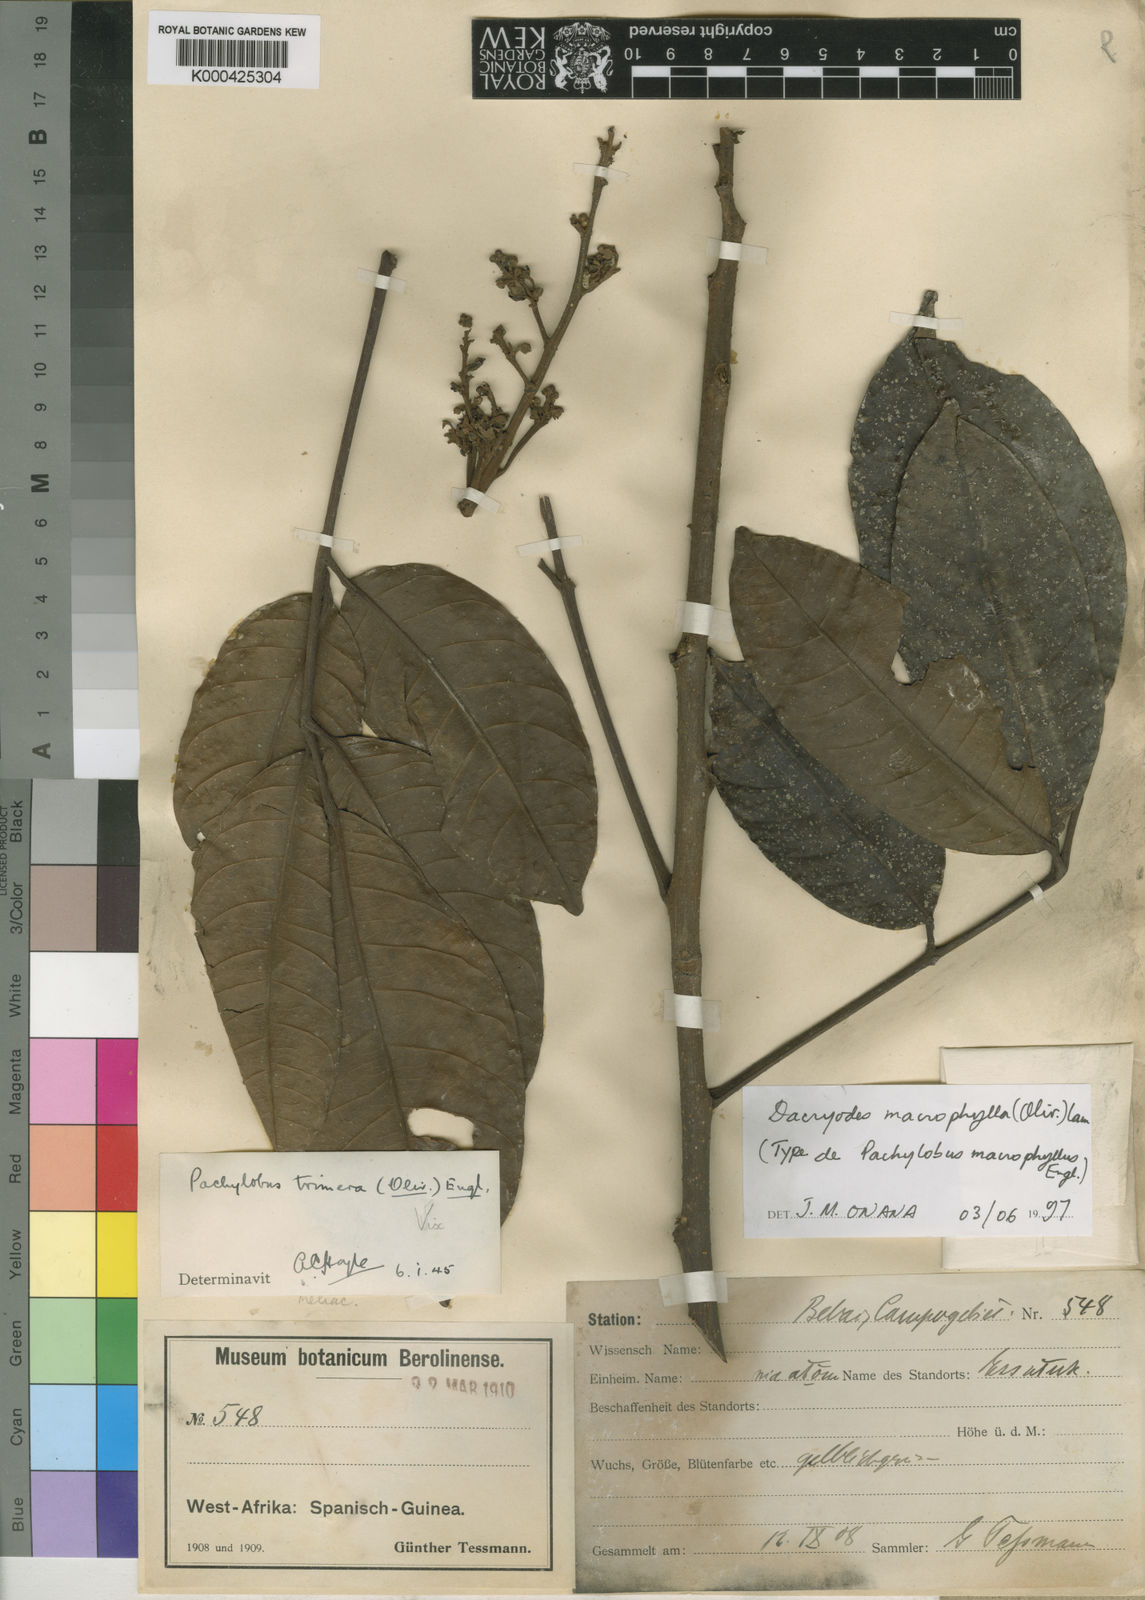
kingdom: Plantae
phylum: Tracheophyta
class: Magnoliopsida
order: Sapindales
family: Burseraceae
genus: Pachylobus
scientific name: Pachylobus macrophyllus
